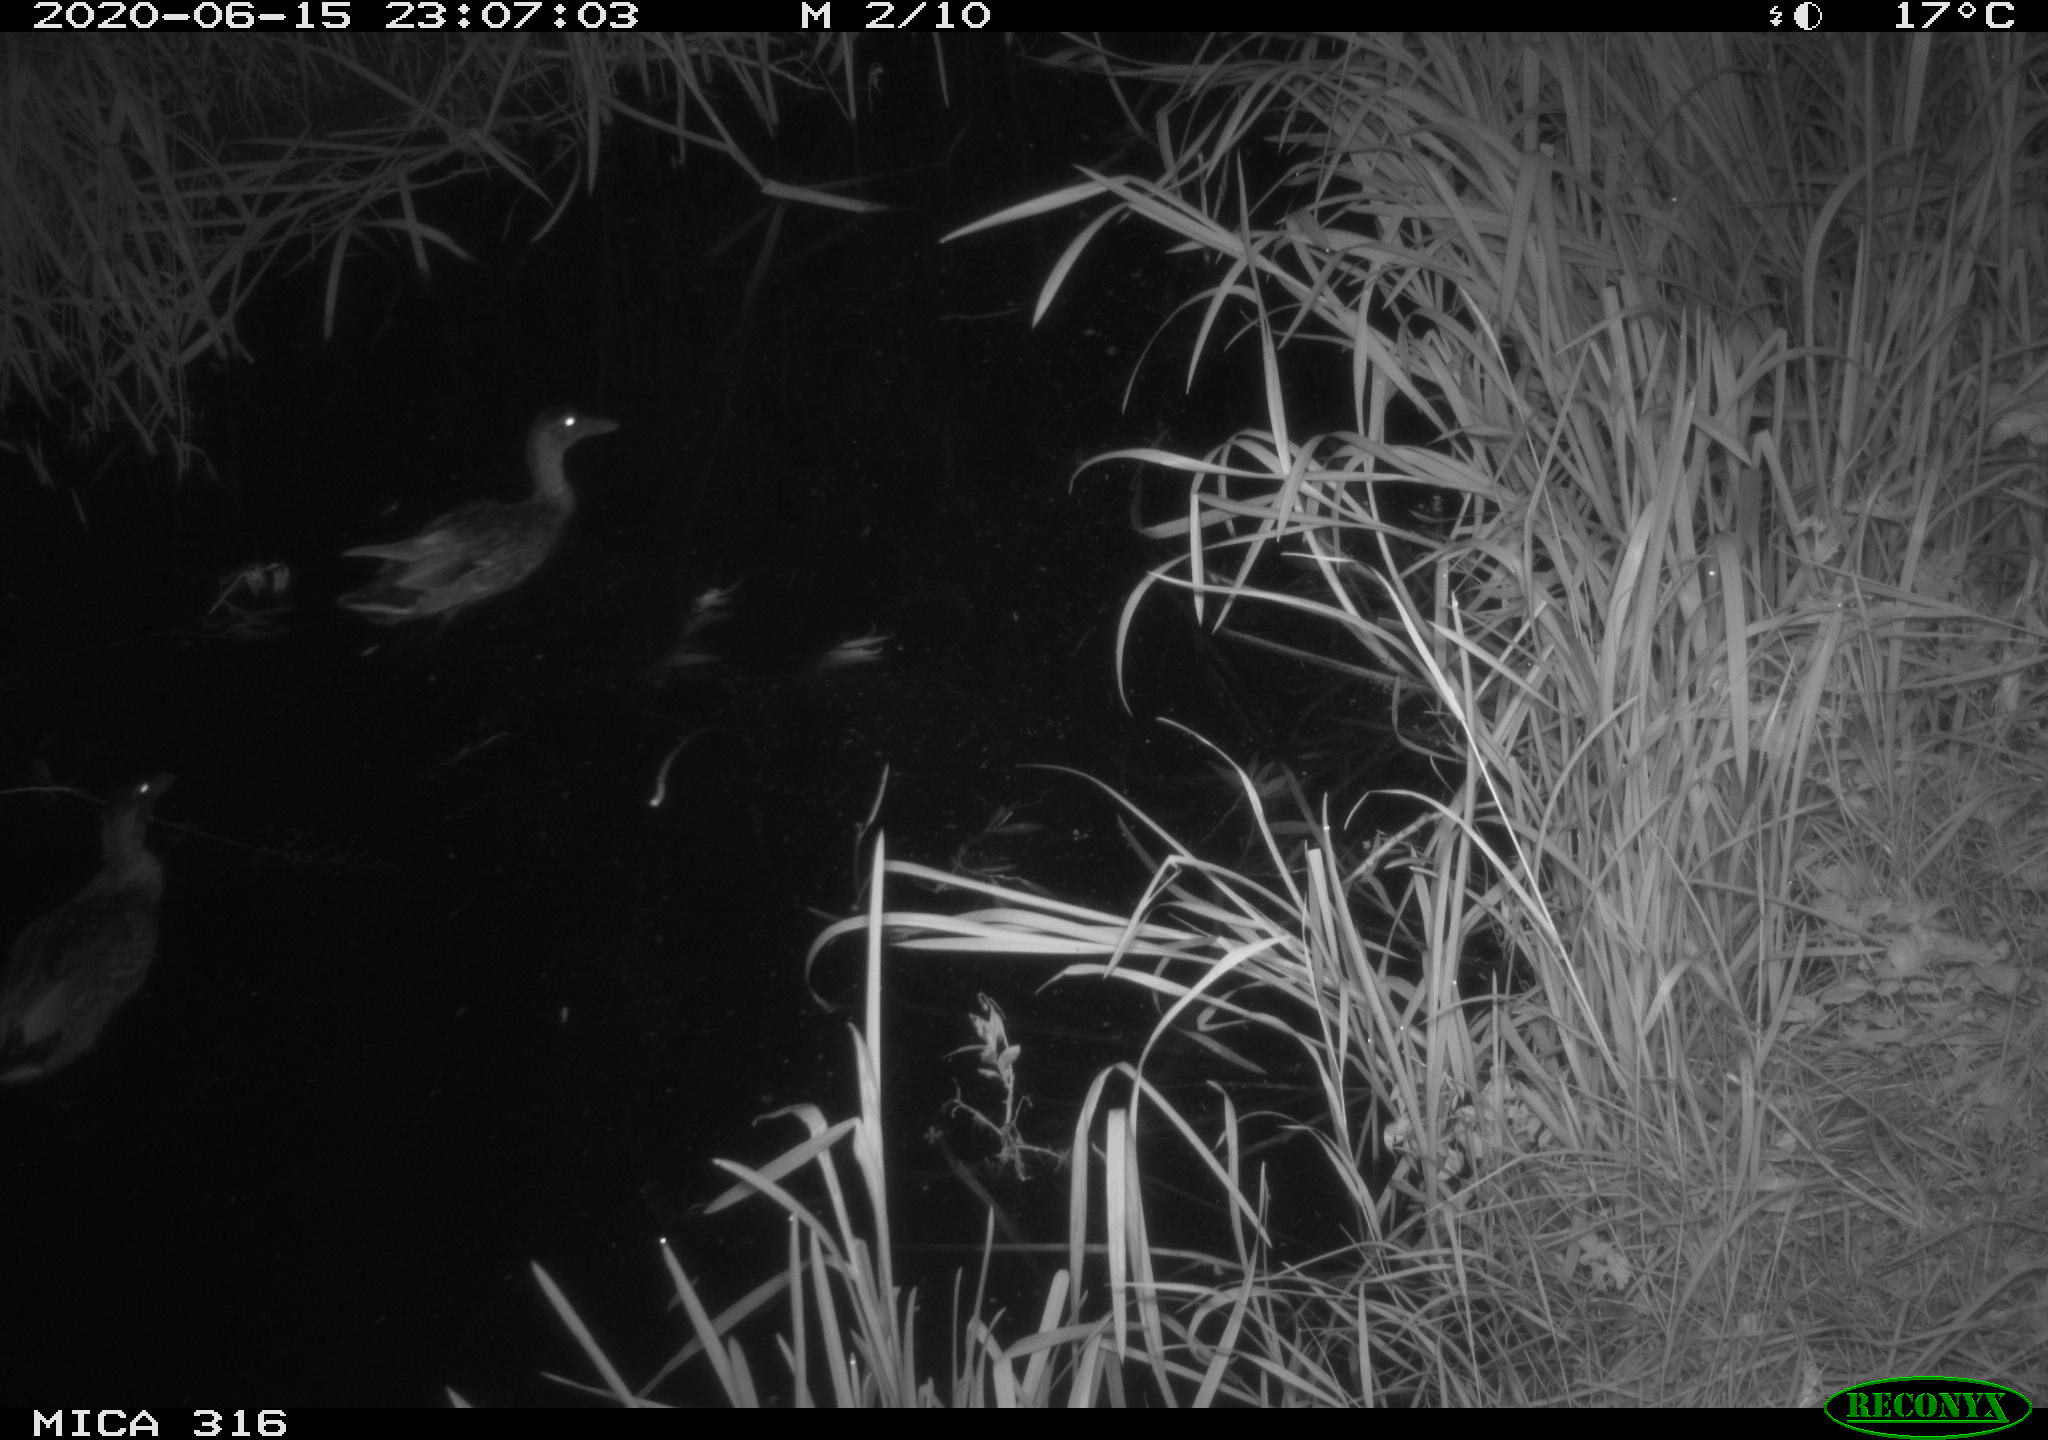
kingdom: Animalia
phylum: Chordata
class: Aves
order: Anseriformes
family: Anatidae
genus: Anas
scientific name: Anas platyrhynchos
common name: Mallard
